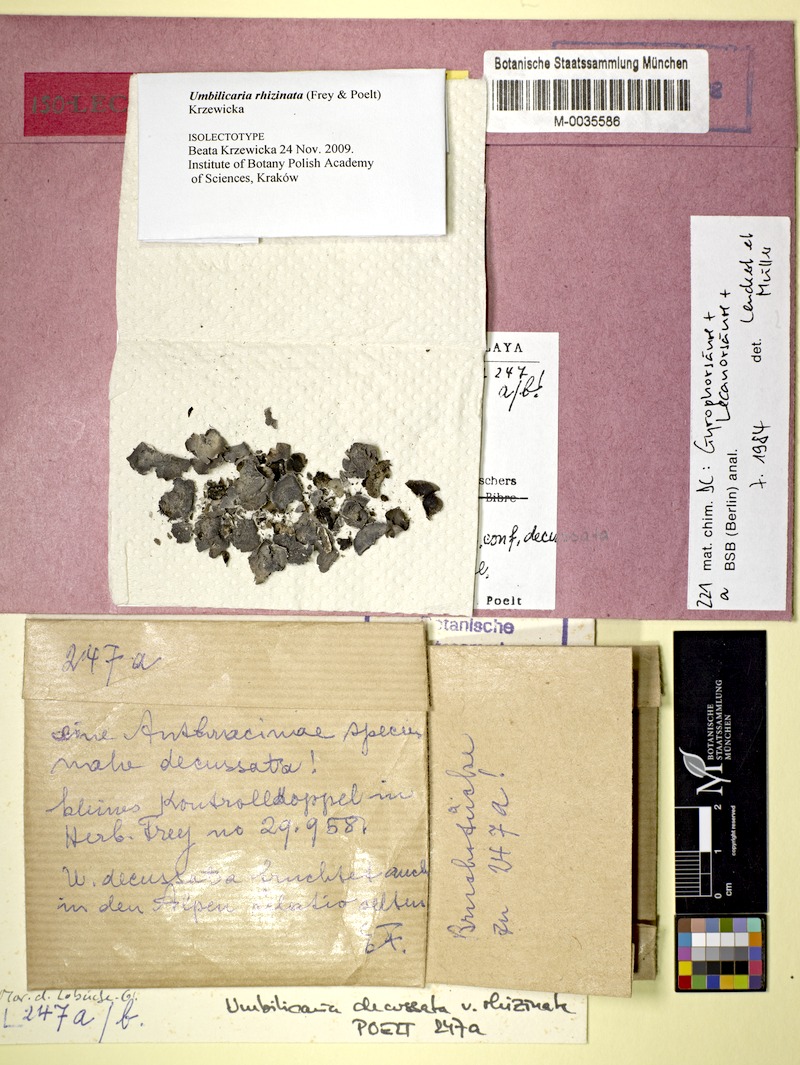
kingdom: Fungi
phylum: Ascomycota
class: Lecanoromycetes
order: Umbilicariales
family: Umbilicariaceae
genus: Umbilicaria
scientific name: Umbilicaria rhizinata
